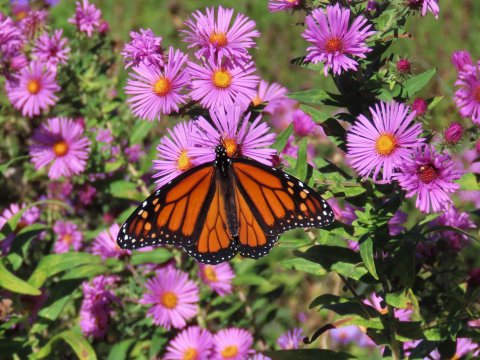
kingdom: Animalia
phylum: Arthropoda
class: Insecta
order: Lepidoptera
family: Nymphalidae
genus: Danaus
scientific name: Danaus plexippus
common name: Monarch
